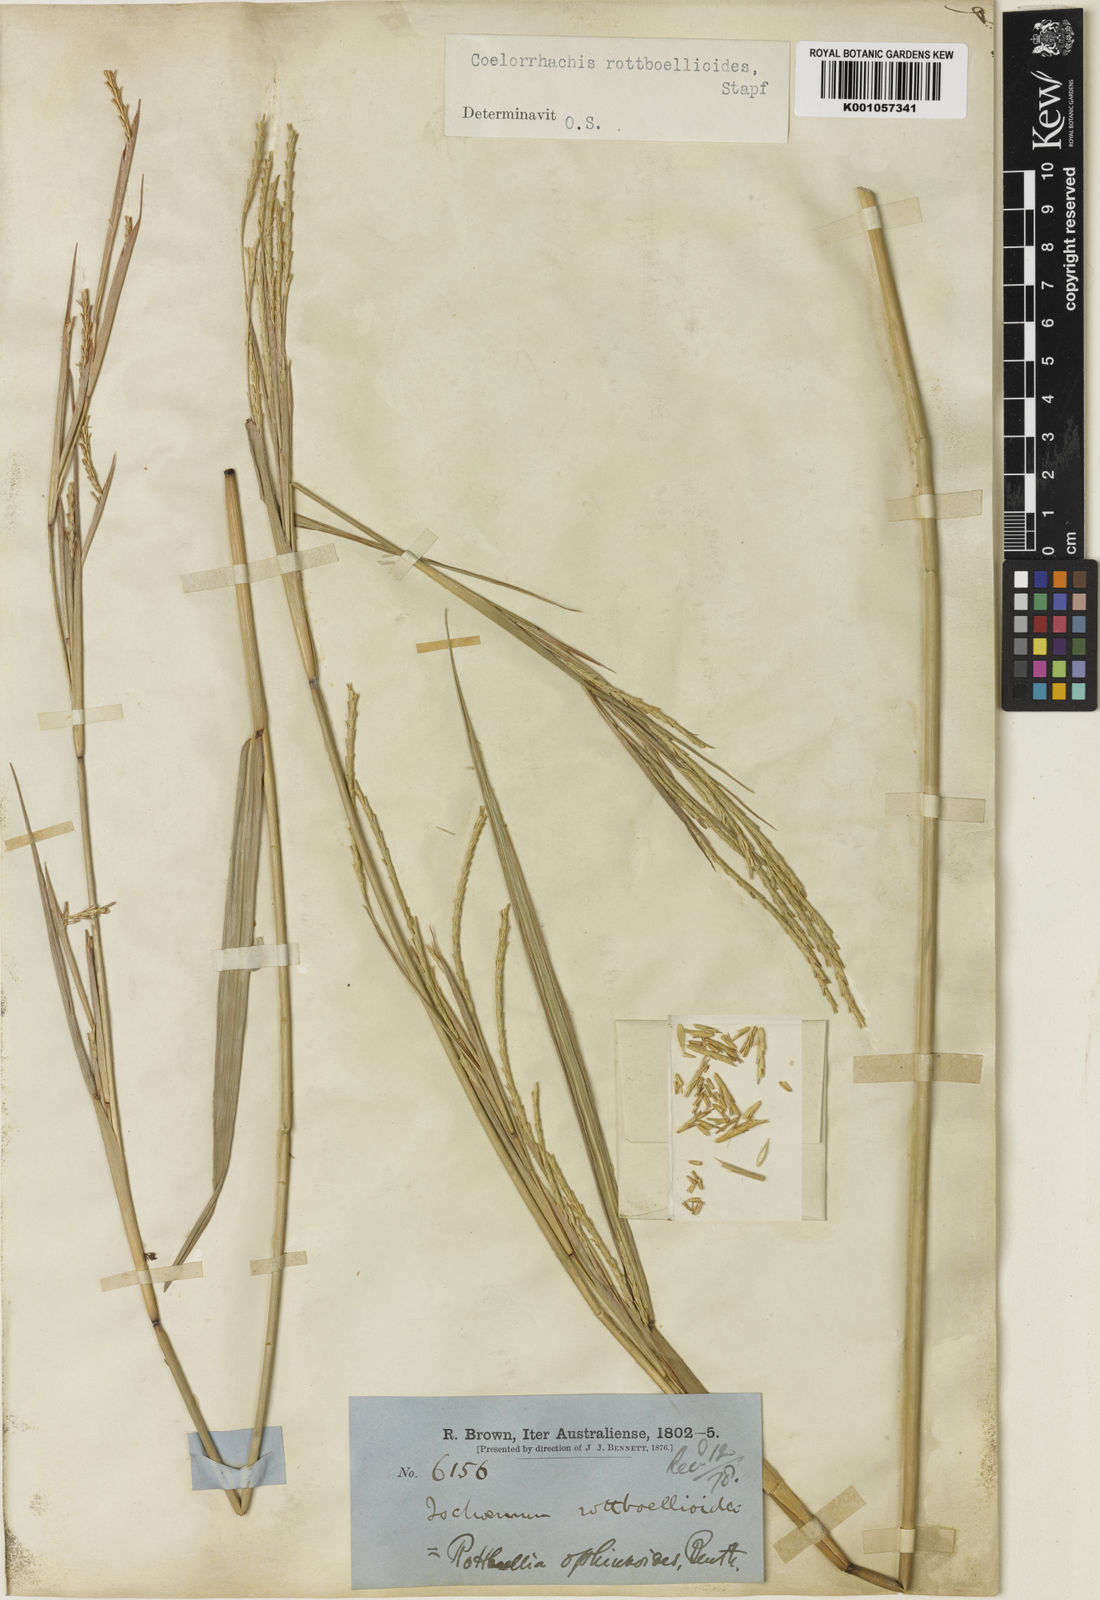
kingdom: Plantae
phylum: Tracheophyta
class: Liliopsida
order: Poales
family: Poaceae
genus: Rottboellia
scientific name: Rottboellia
